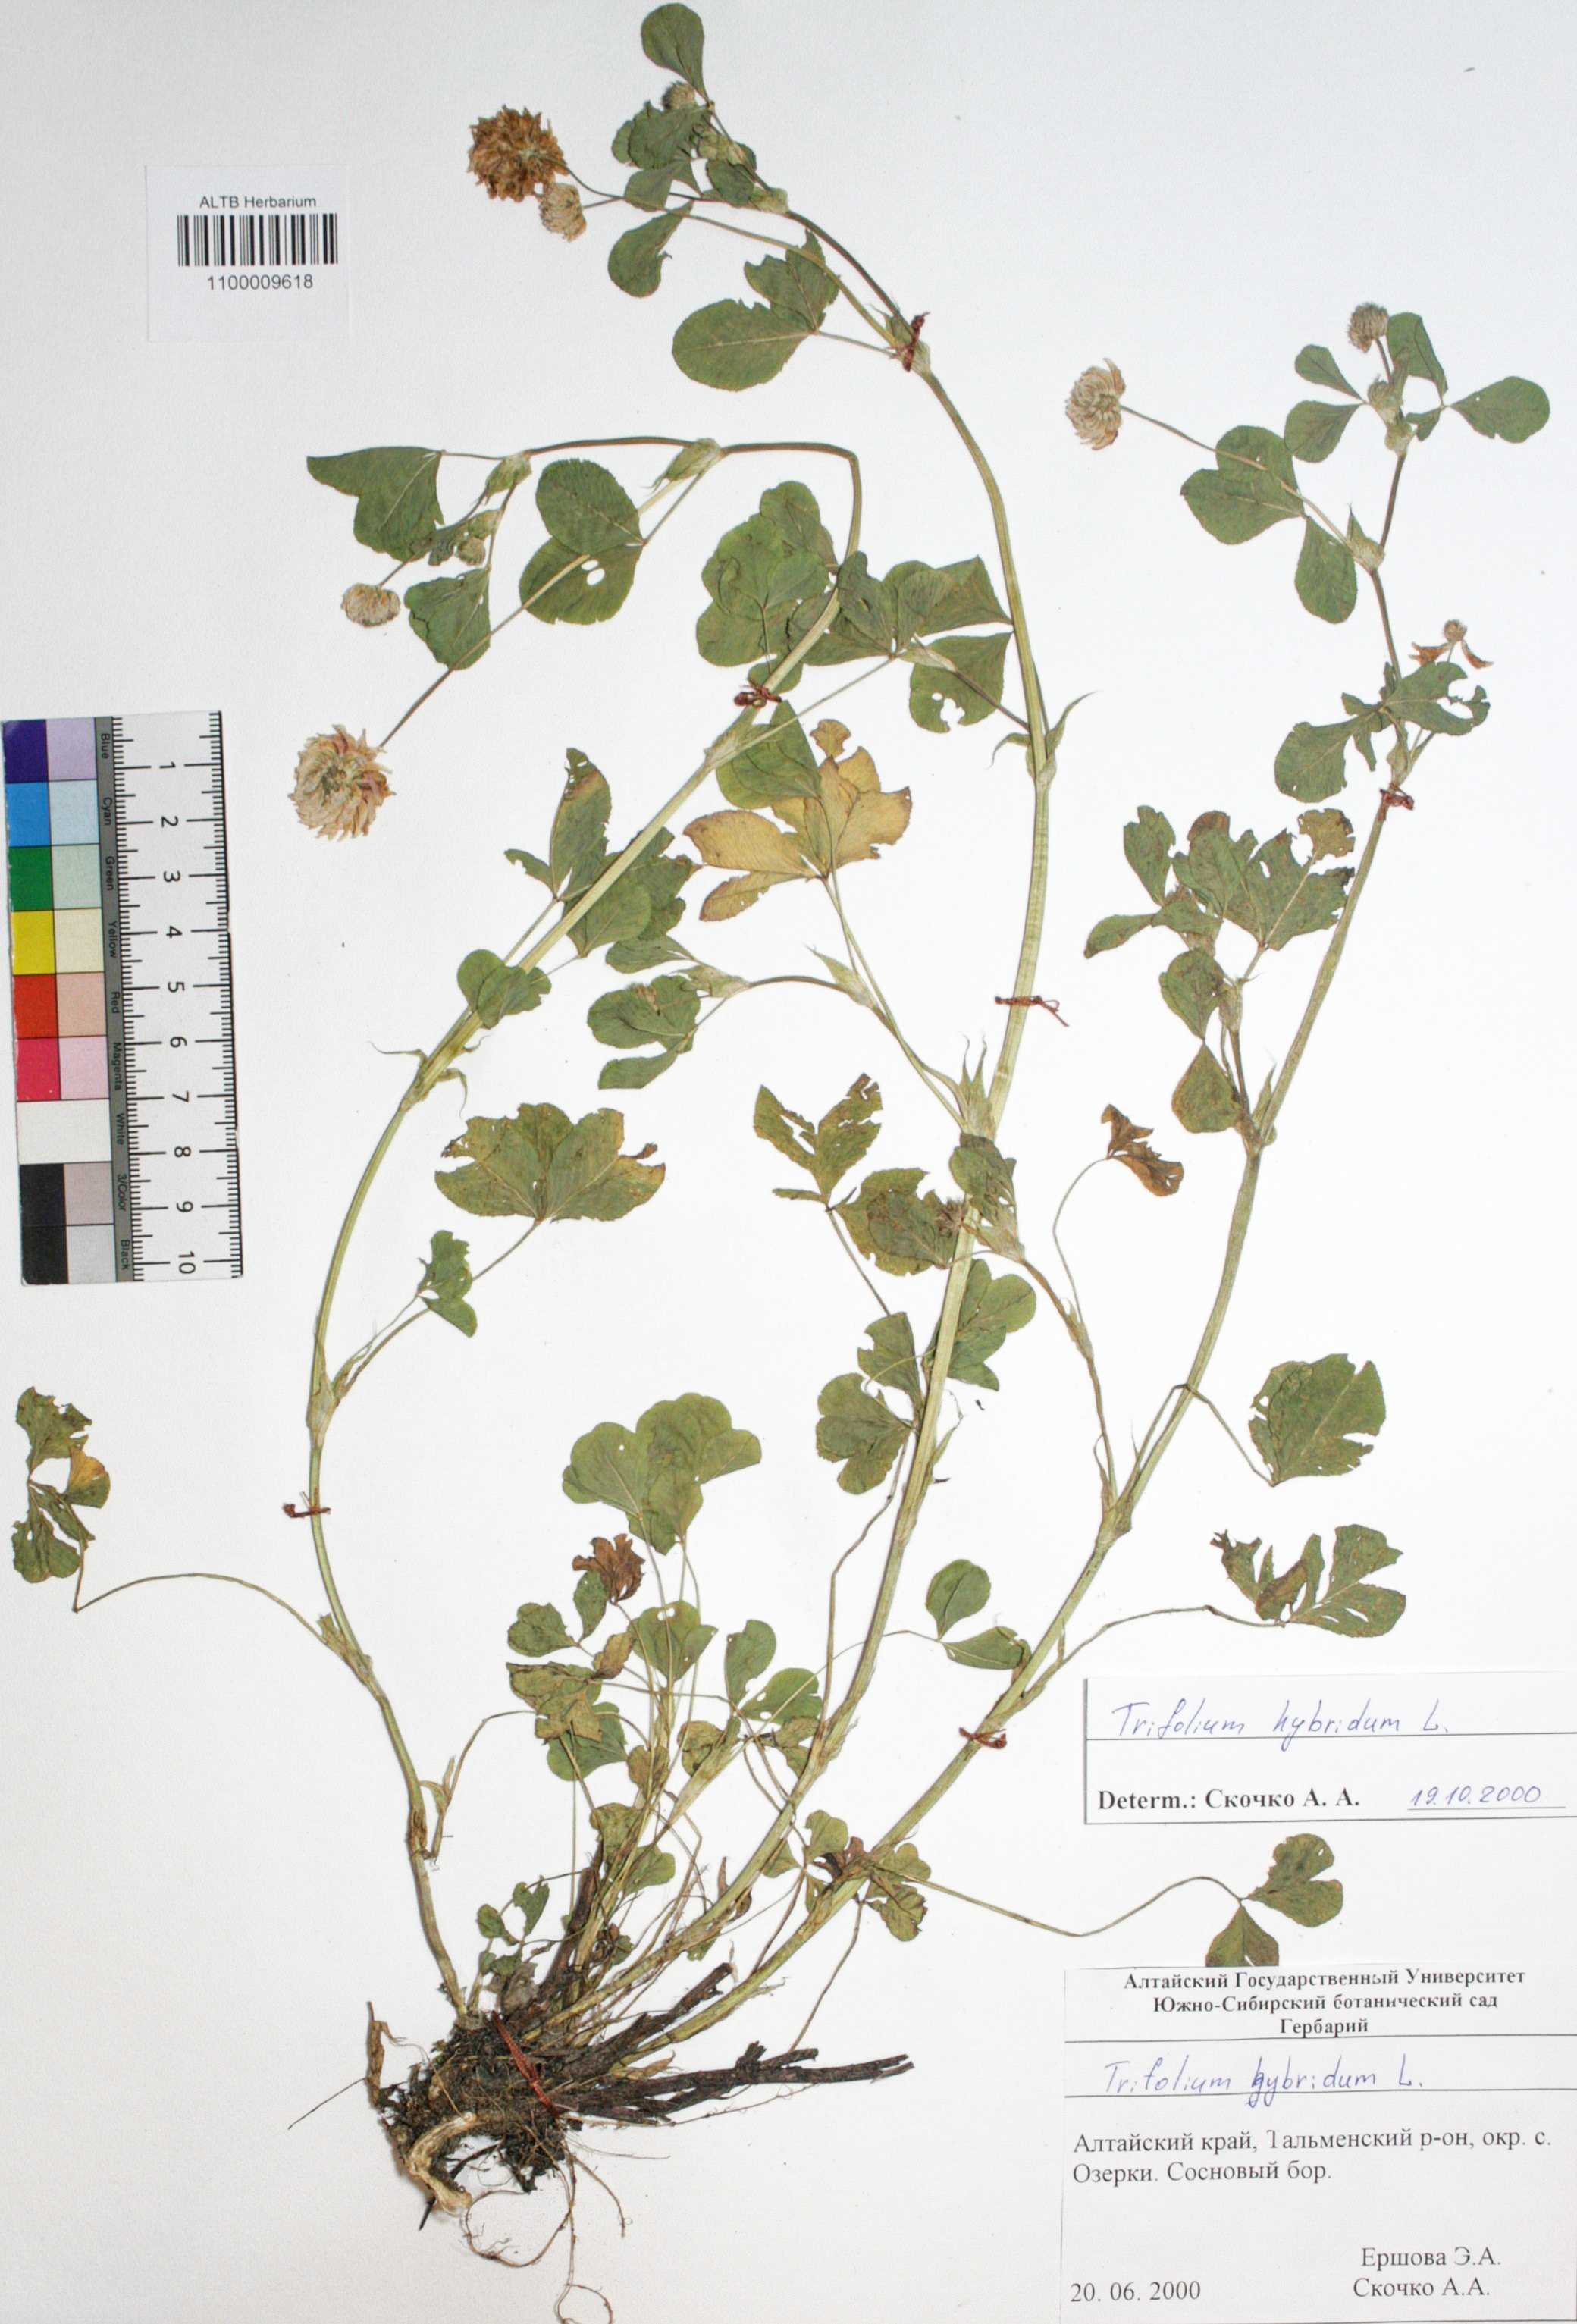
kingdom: Plantae
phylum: Tracheophyta
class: Magnoliopsida
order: Fabales
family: Fabaceae
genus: Trifolium
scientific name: Trifolium hybridum
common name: Alsike clover
